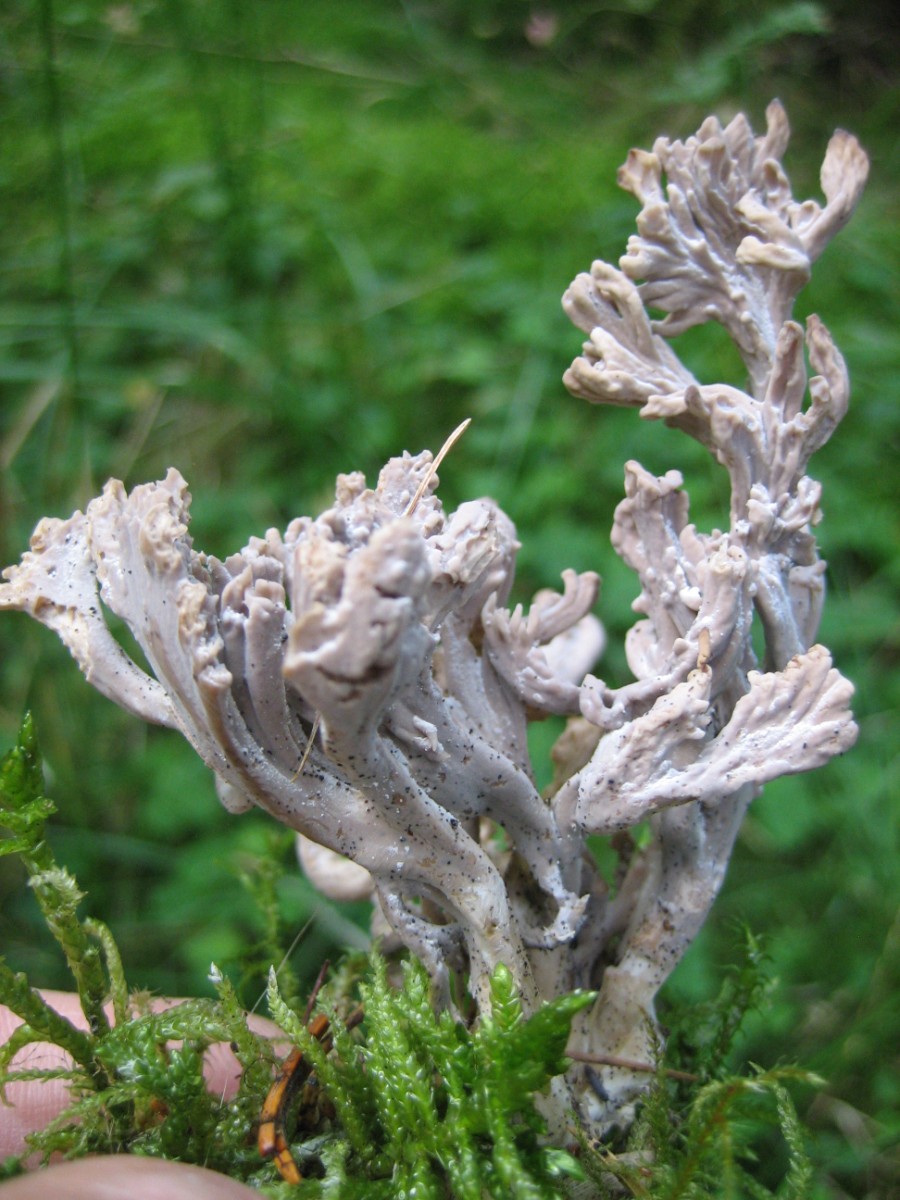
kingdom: Fungi
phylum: Basidiomycota
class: Agaricomycetes
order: Cantharellales
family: Hydnaceae
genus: Clavulina
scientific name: Clavulina
